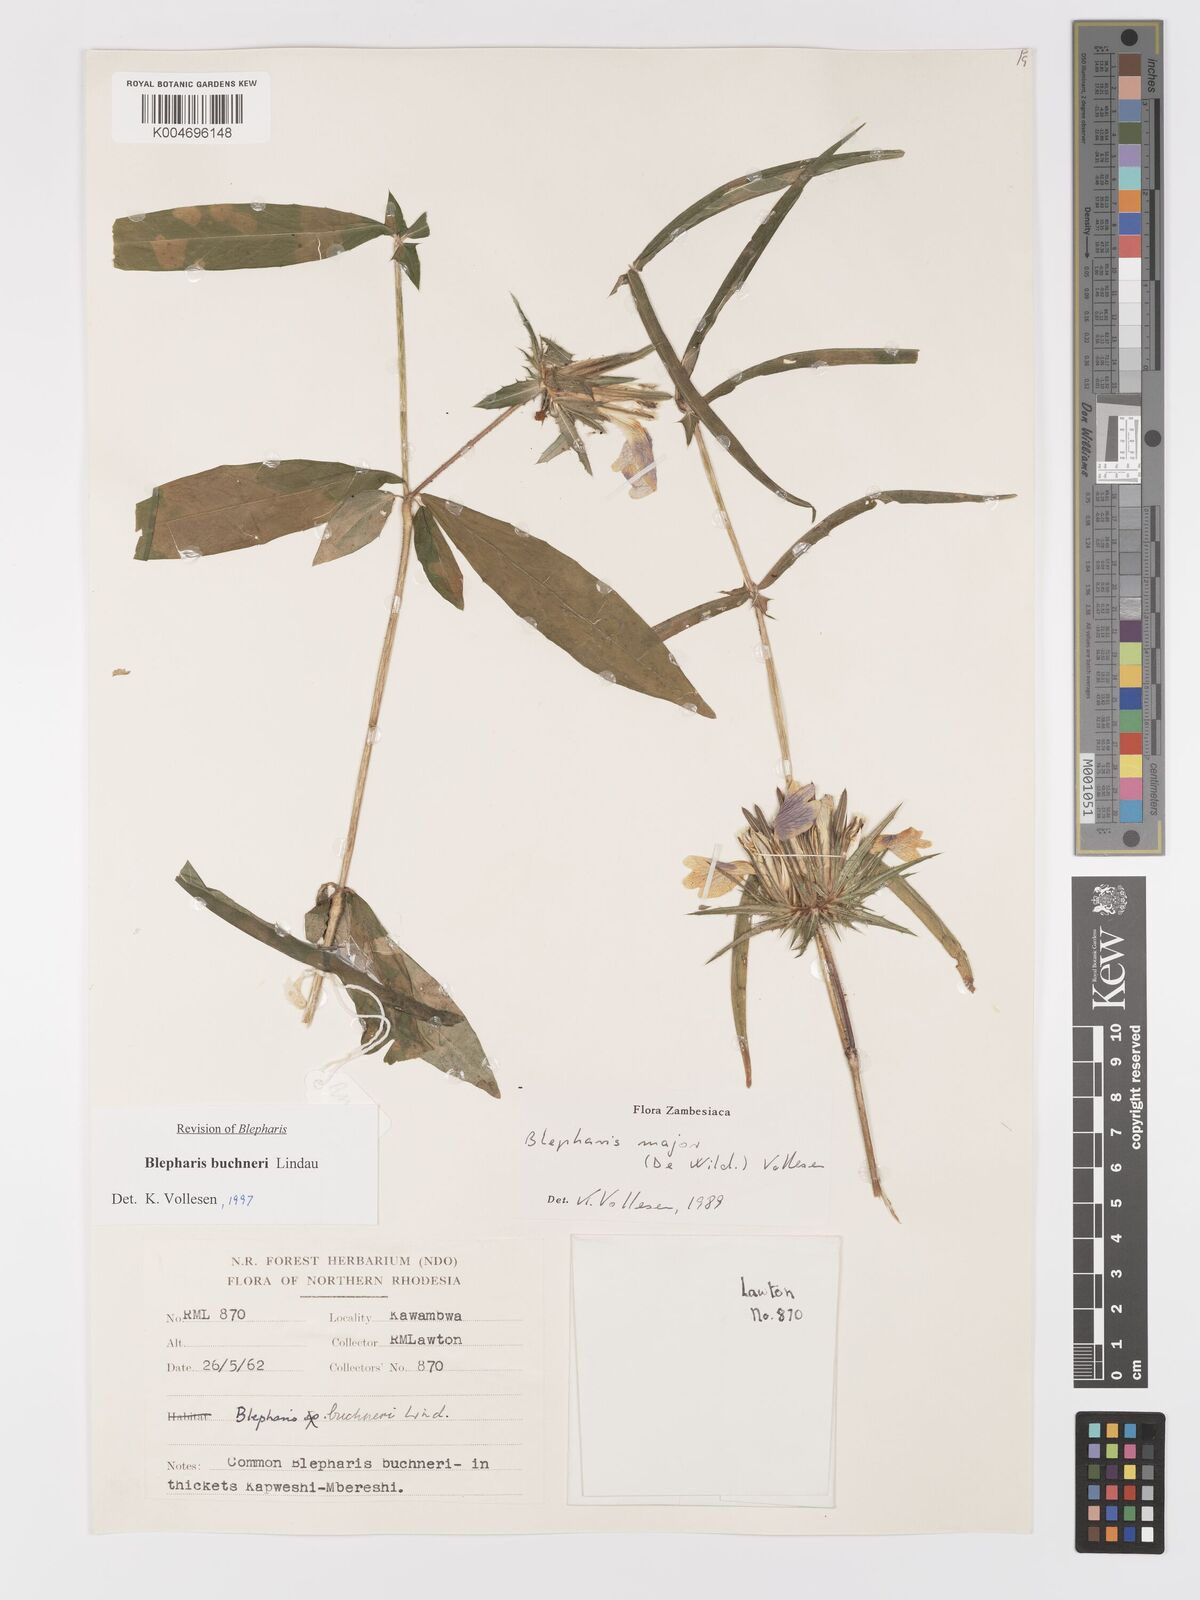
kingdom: Plantae
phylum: Tracheophyta
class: Magnoliopsida
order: Lamiales
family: Acanthaceae
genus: Blepharis
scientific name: Blepharis buchneri
